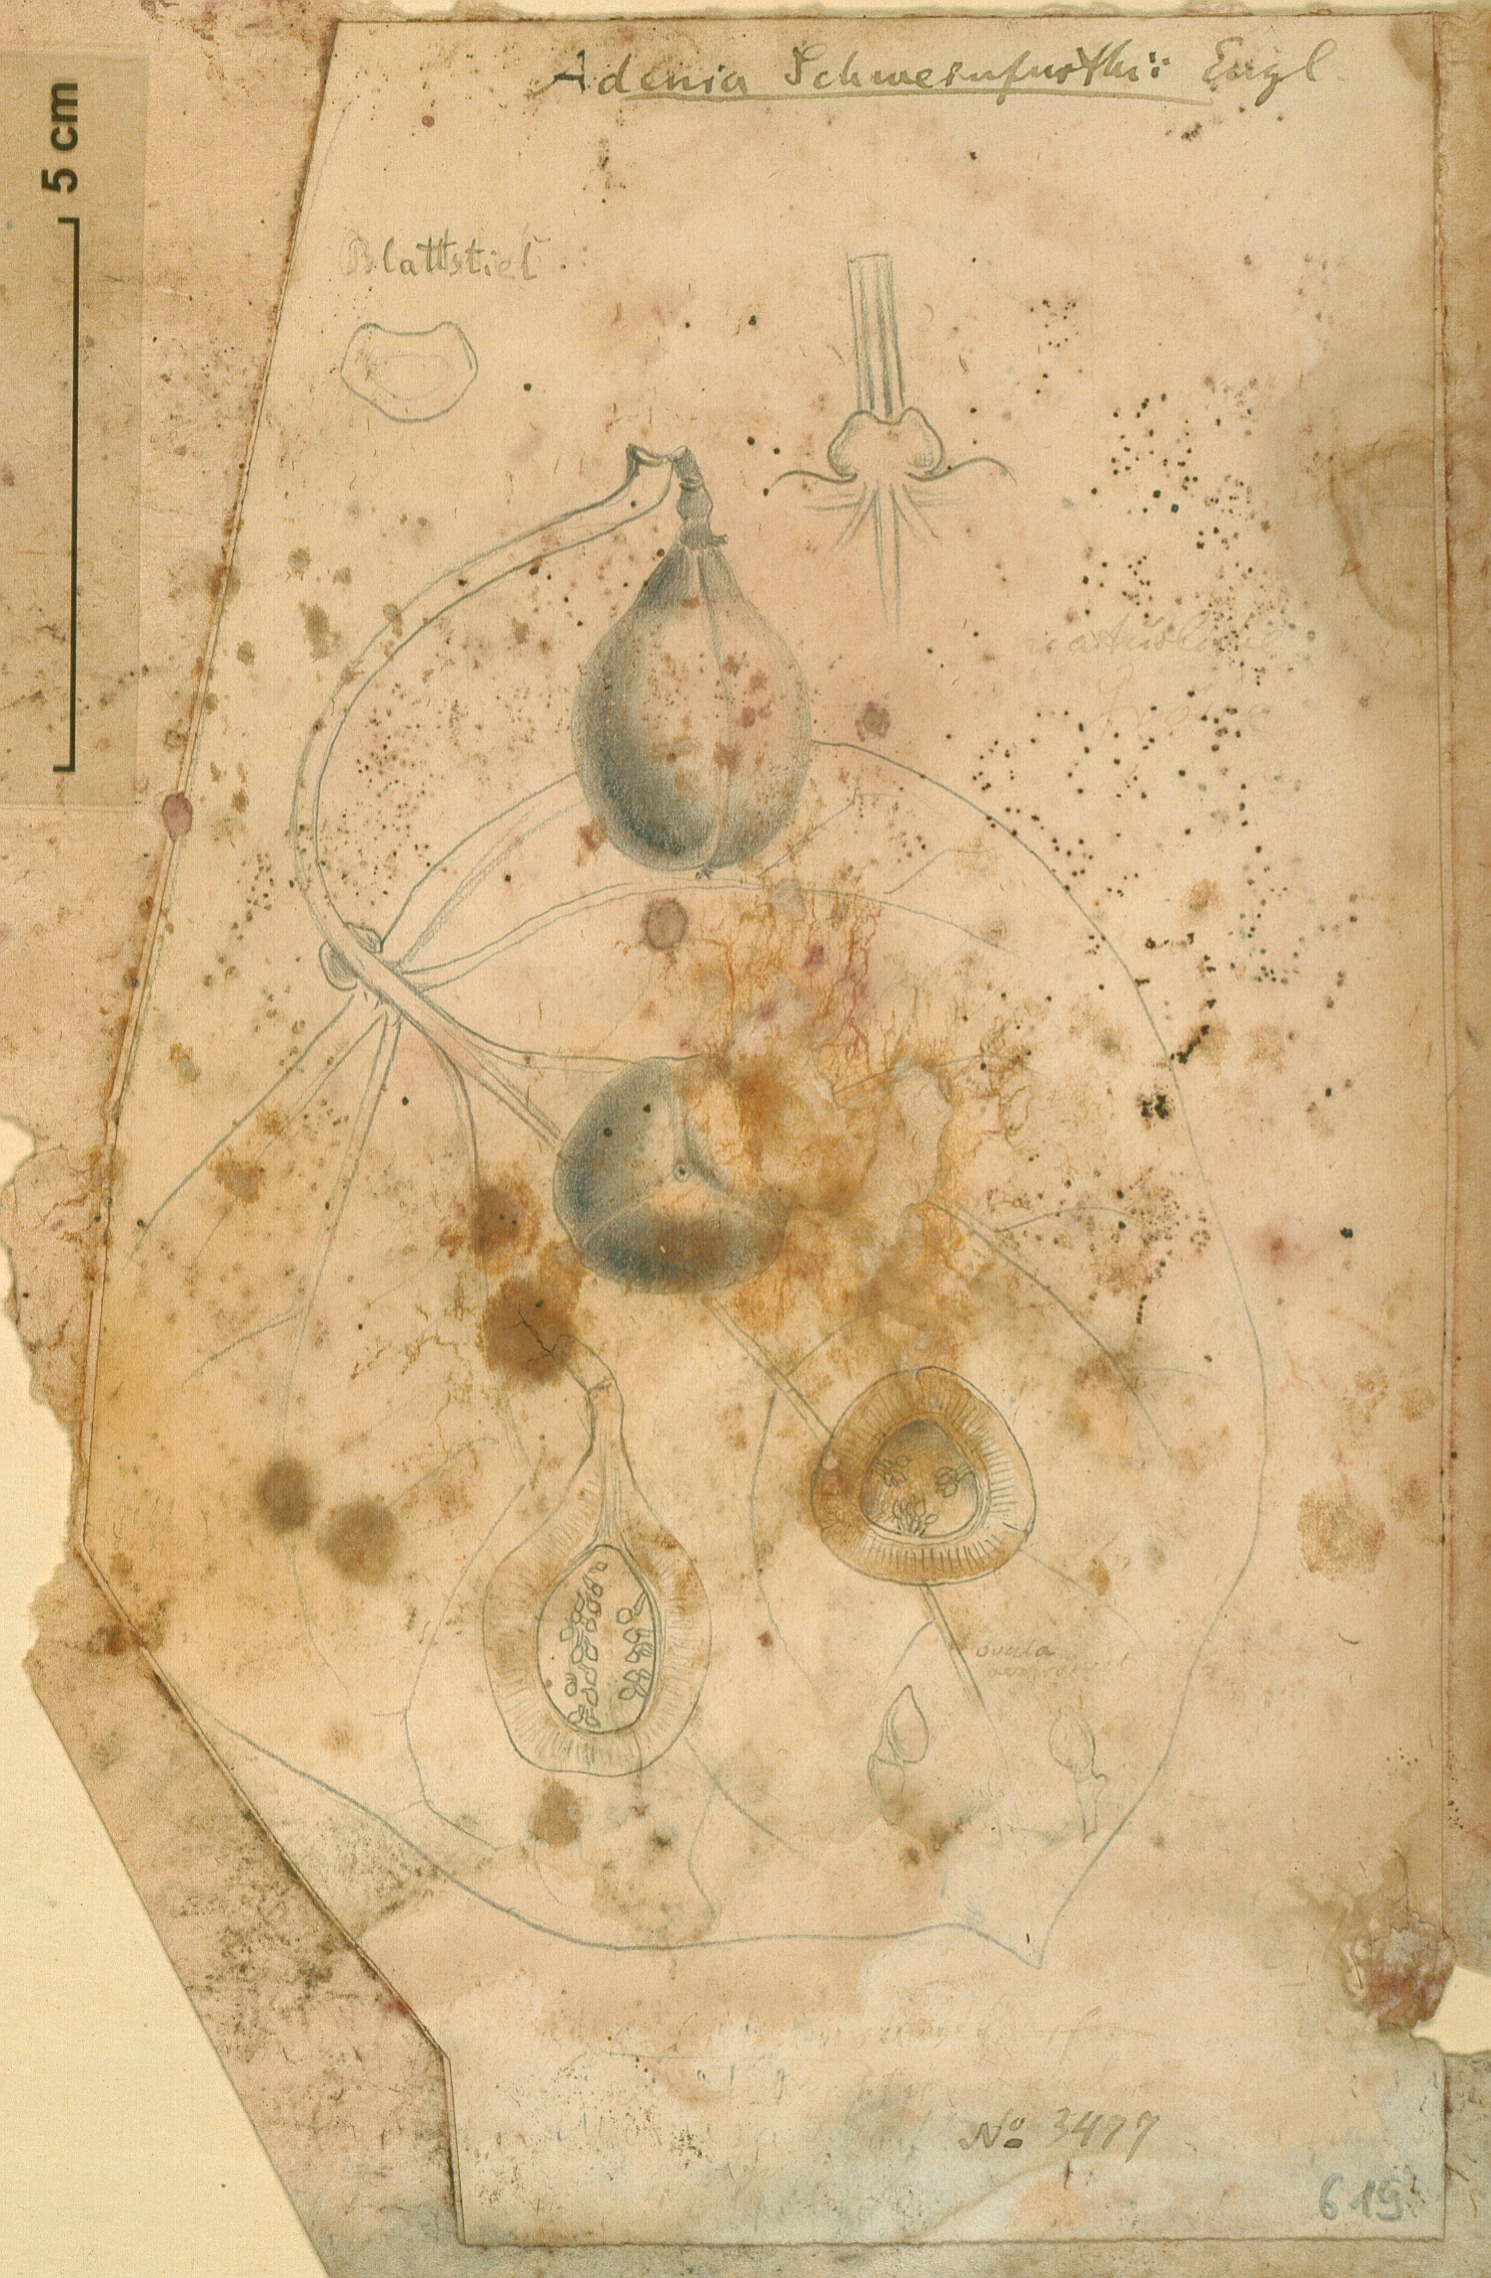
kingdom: Plantae
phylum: Tracheophyta
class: Magnoliopsida
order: Malpighiales
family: Passifloraceae
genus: Adenia
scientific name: Adenia lobata
